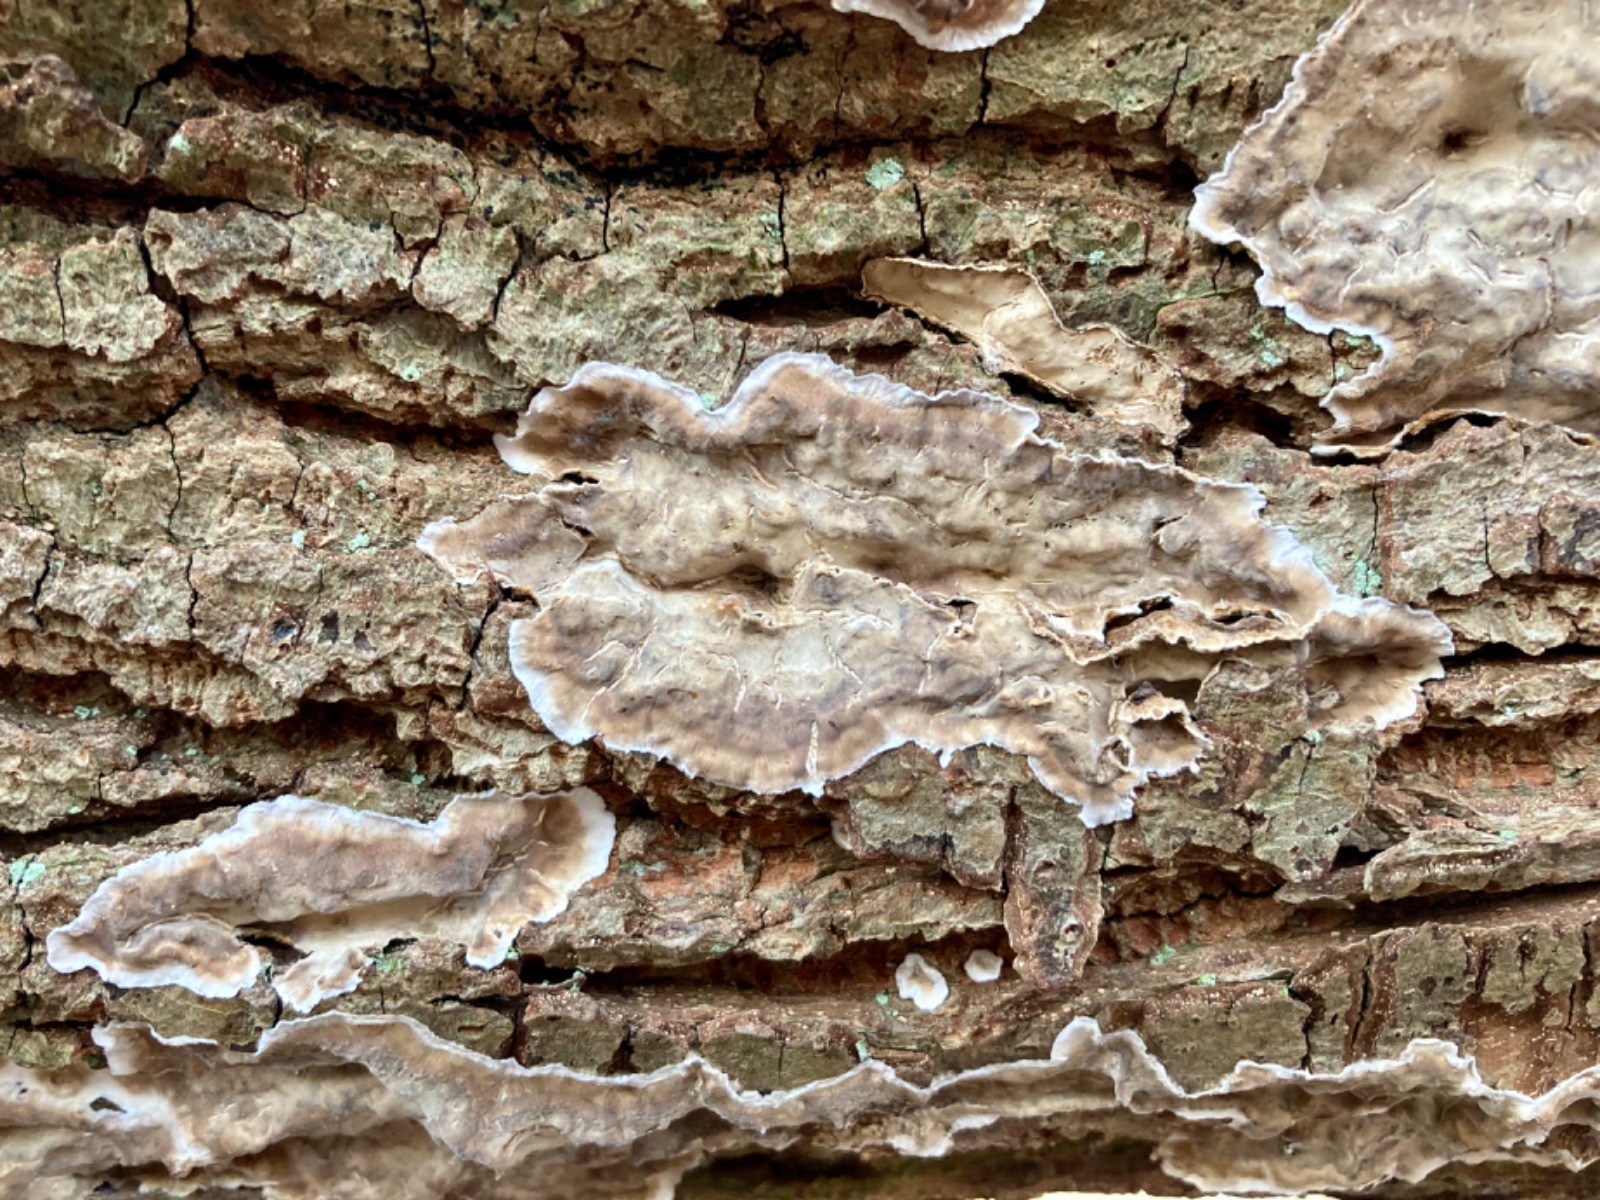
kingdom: Fungi
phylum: Basidiomycota
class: Agaricomycetes
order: Agaricales
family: Physalacriaceae
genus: Cylindrobasidium
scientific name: Cylindrobasidium evolvens
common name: sprækkehinde
